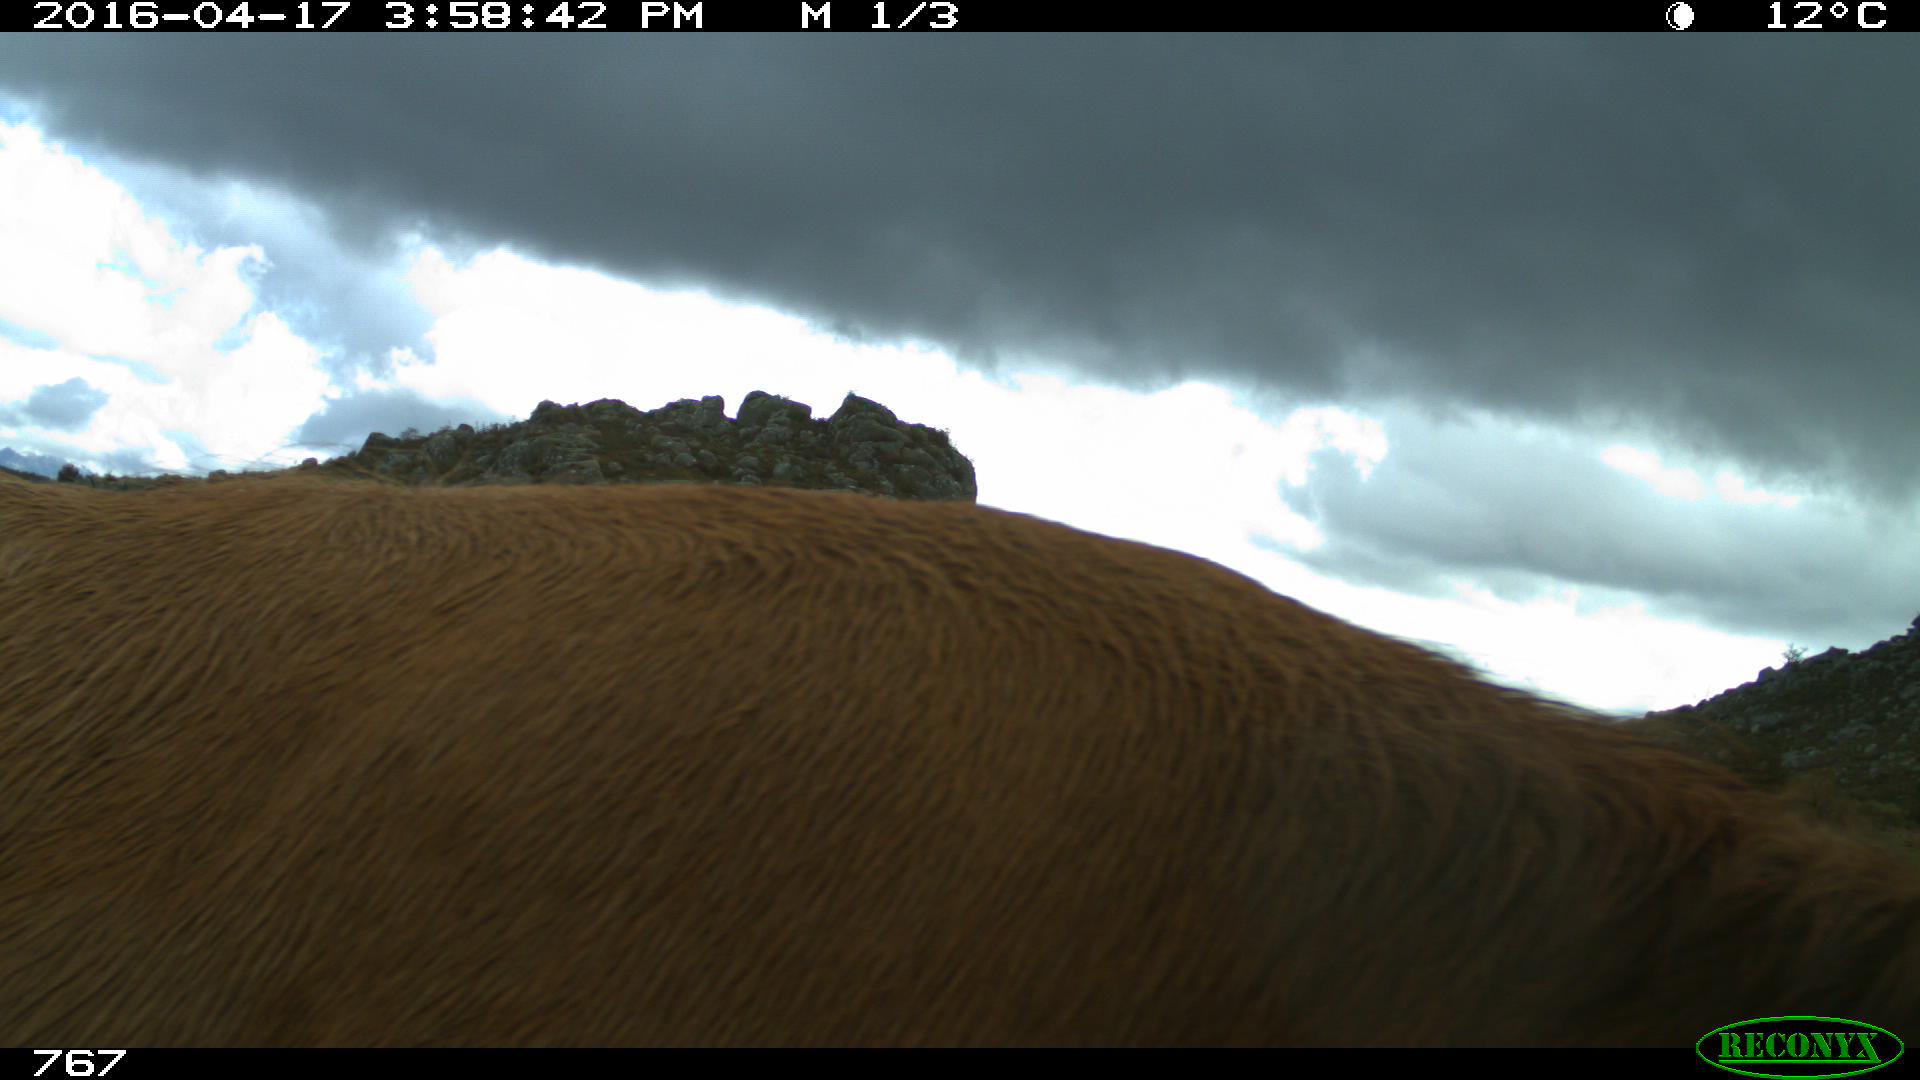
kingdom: Animalia
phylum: Chordata
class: Mammalia
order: Artiodactyla
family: Bovidae
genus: Bos
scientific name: Bos taurus
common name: Domesticated cattle
